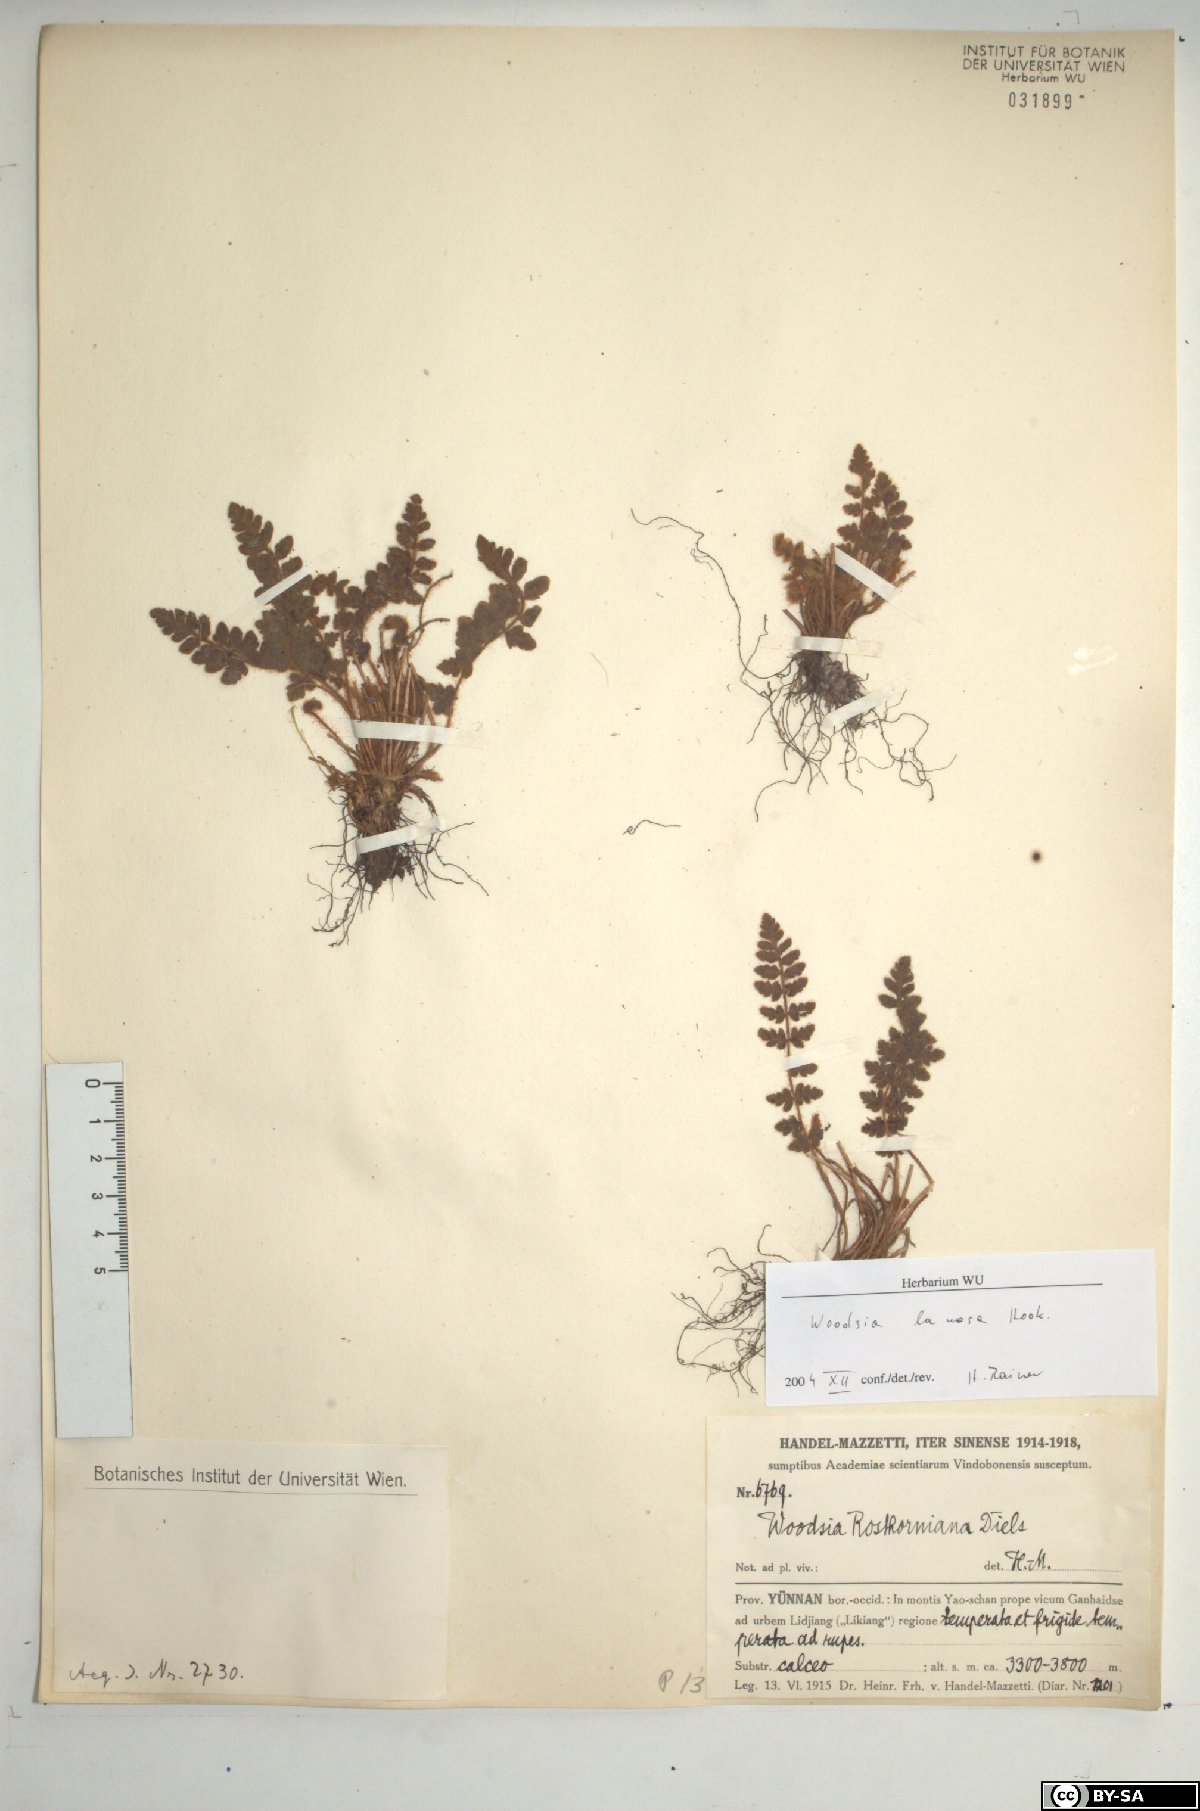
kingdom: Plantae
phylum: Tracheophyta
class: Polypodiopsida
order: Polypodiales
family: Woodsiaceae
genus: Woodsia
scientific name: Woodsia rosthorniana
